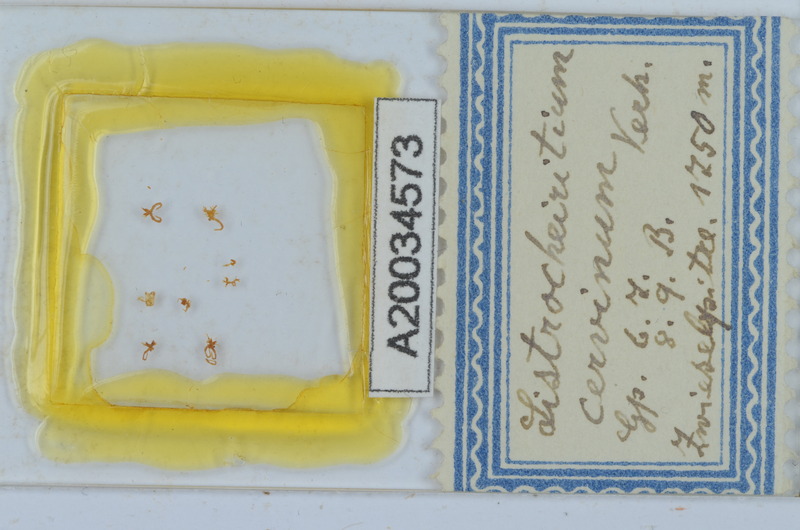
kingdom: Animalia
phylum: Arthropoda
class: Diplopoda
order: Chordeumatida
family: Craspedosomatidae
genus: Listrocheiritium
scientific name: Listrocheiritium cervinum
